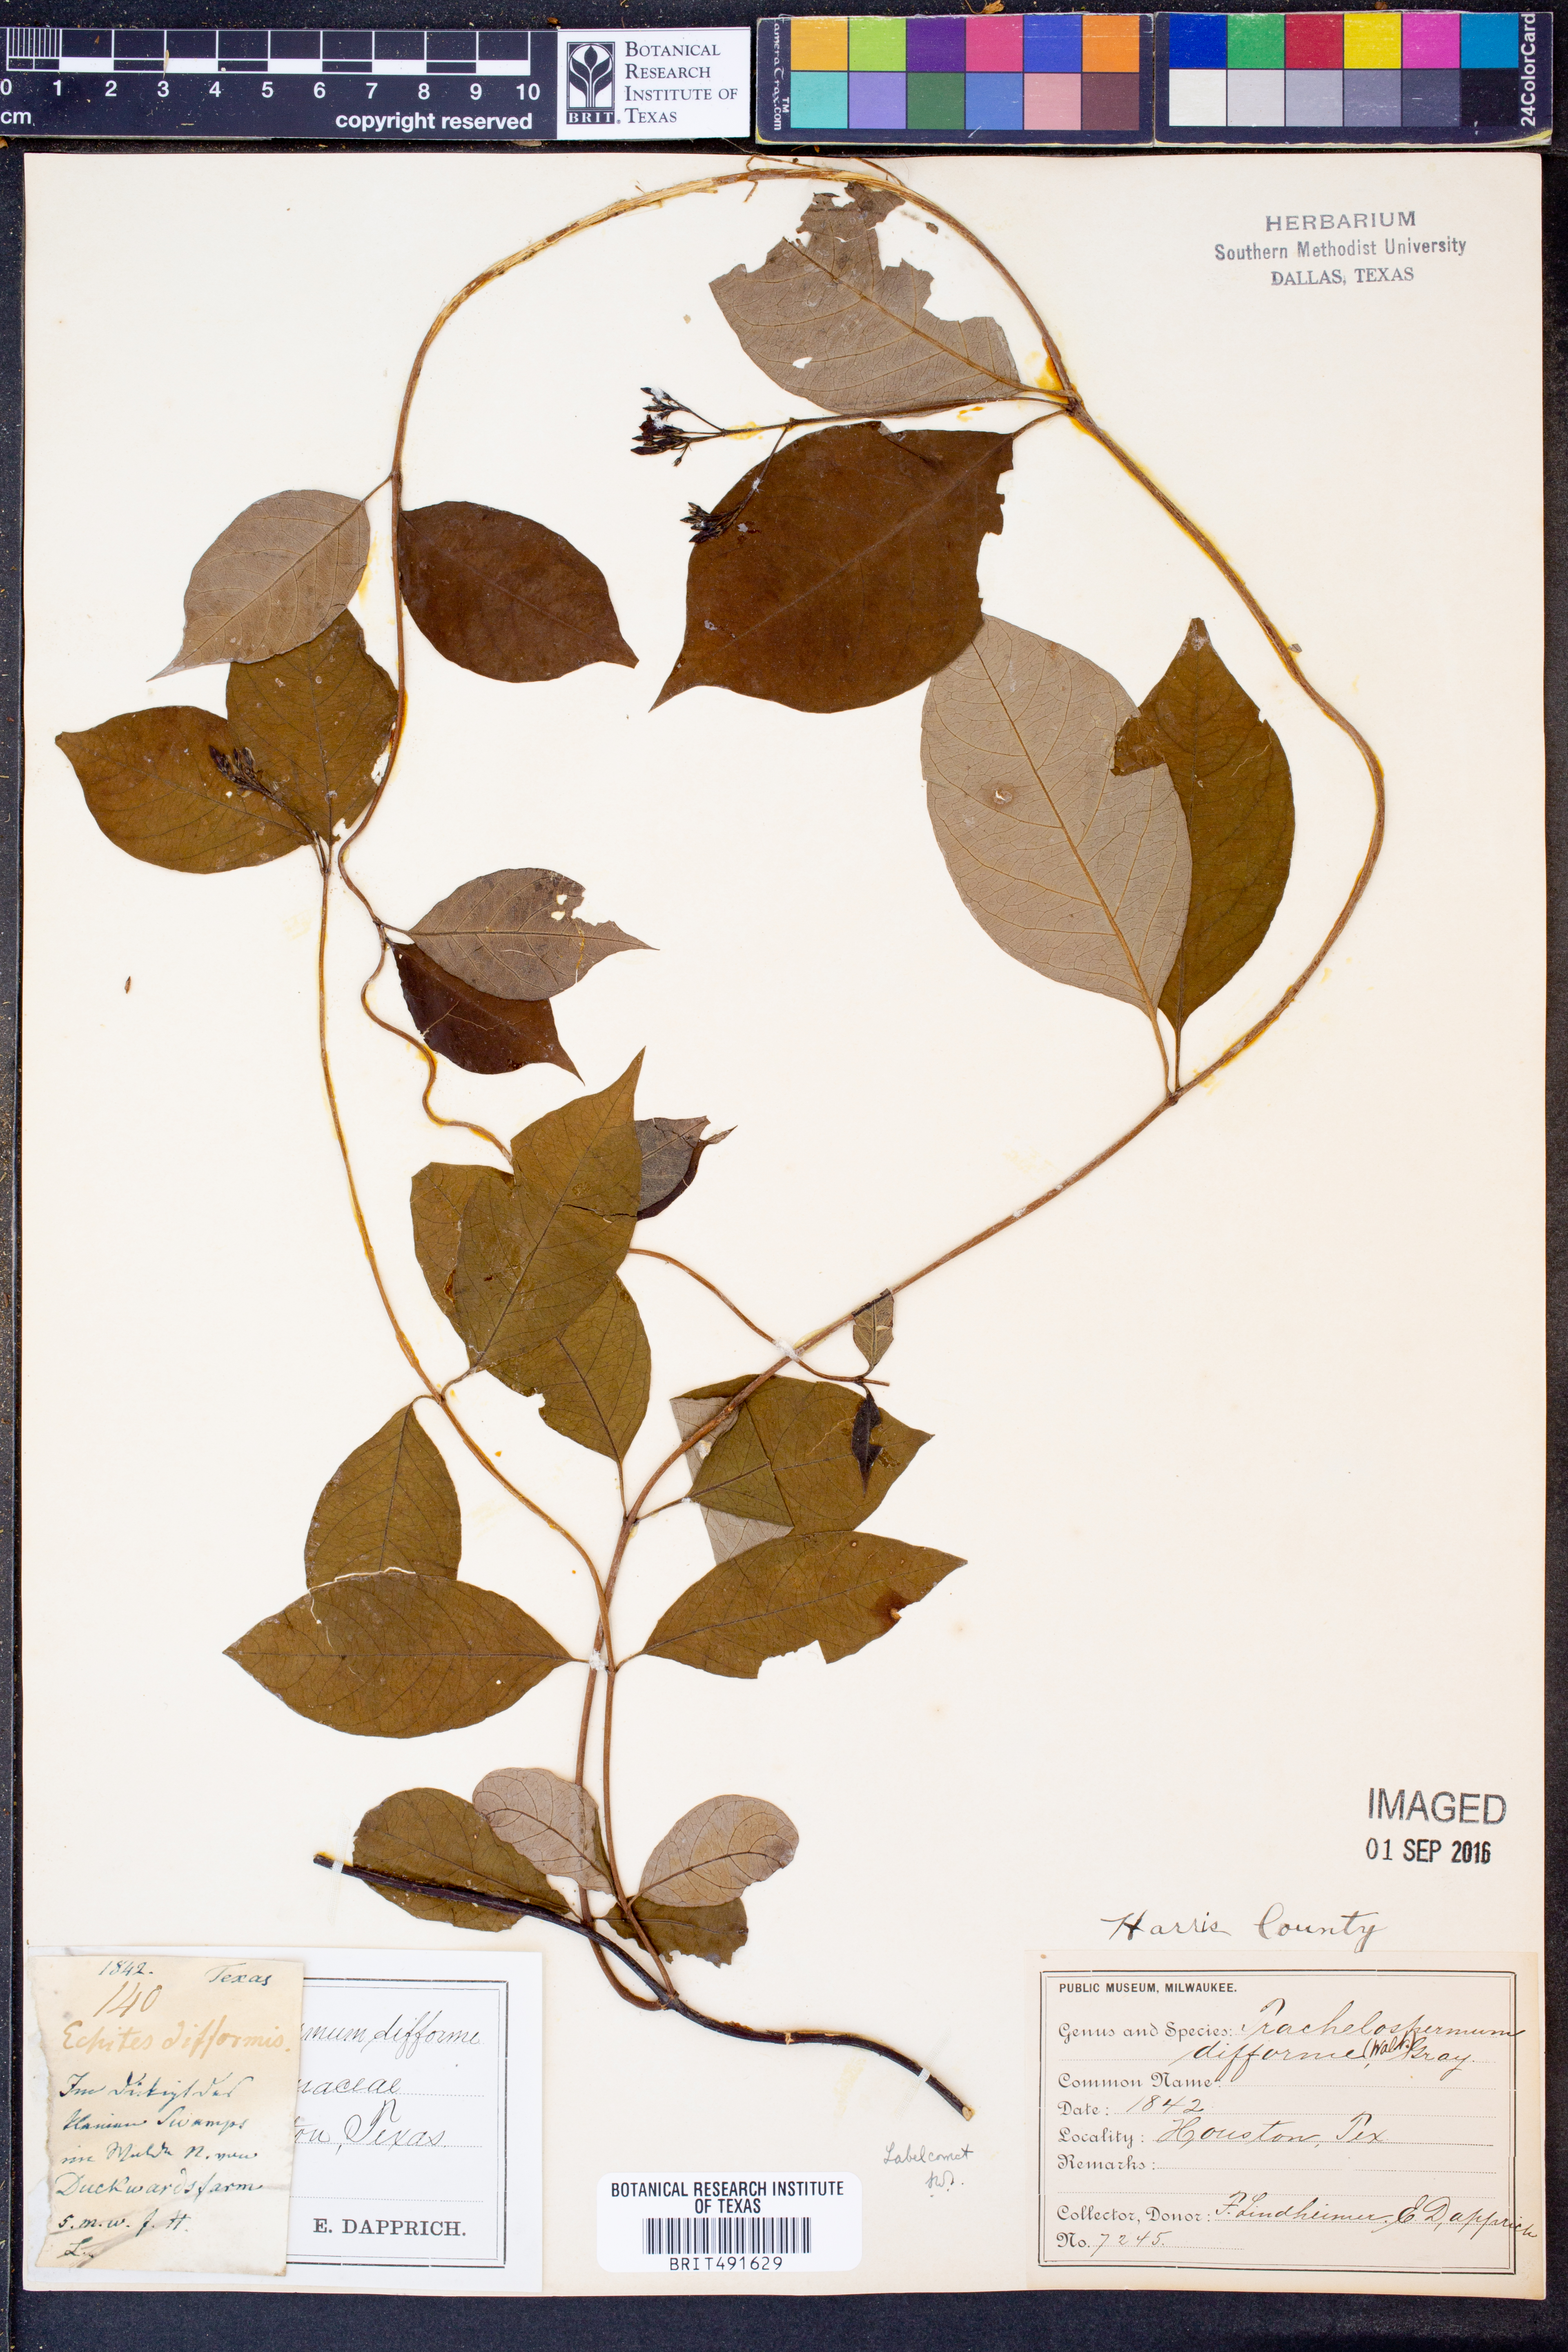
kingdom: Plantae
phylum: Tracheophyta
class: Magnoliopsida
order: Gentianales
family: Apocynaceae
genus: Thyrsanthella
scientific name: Thyrsanthella difformis
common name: Climbing dogbane
